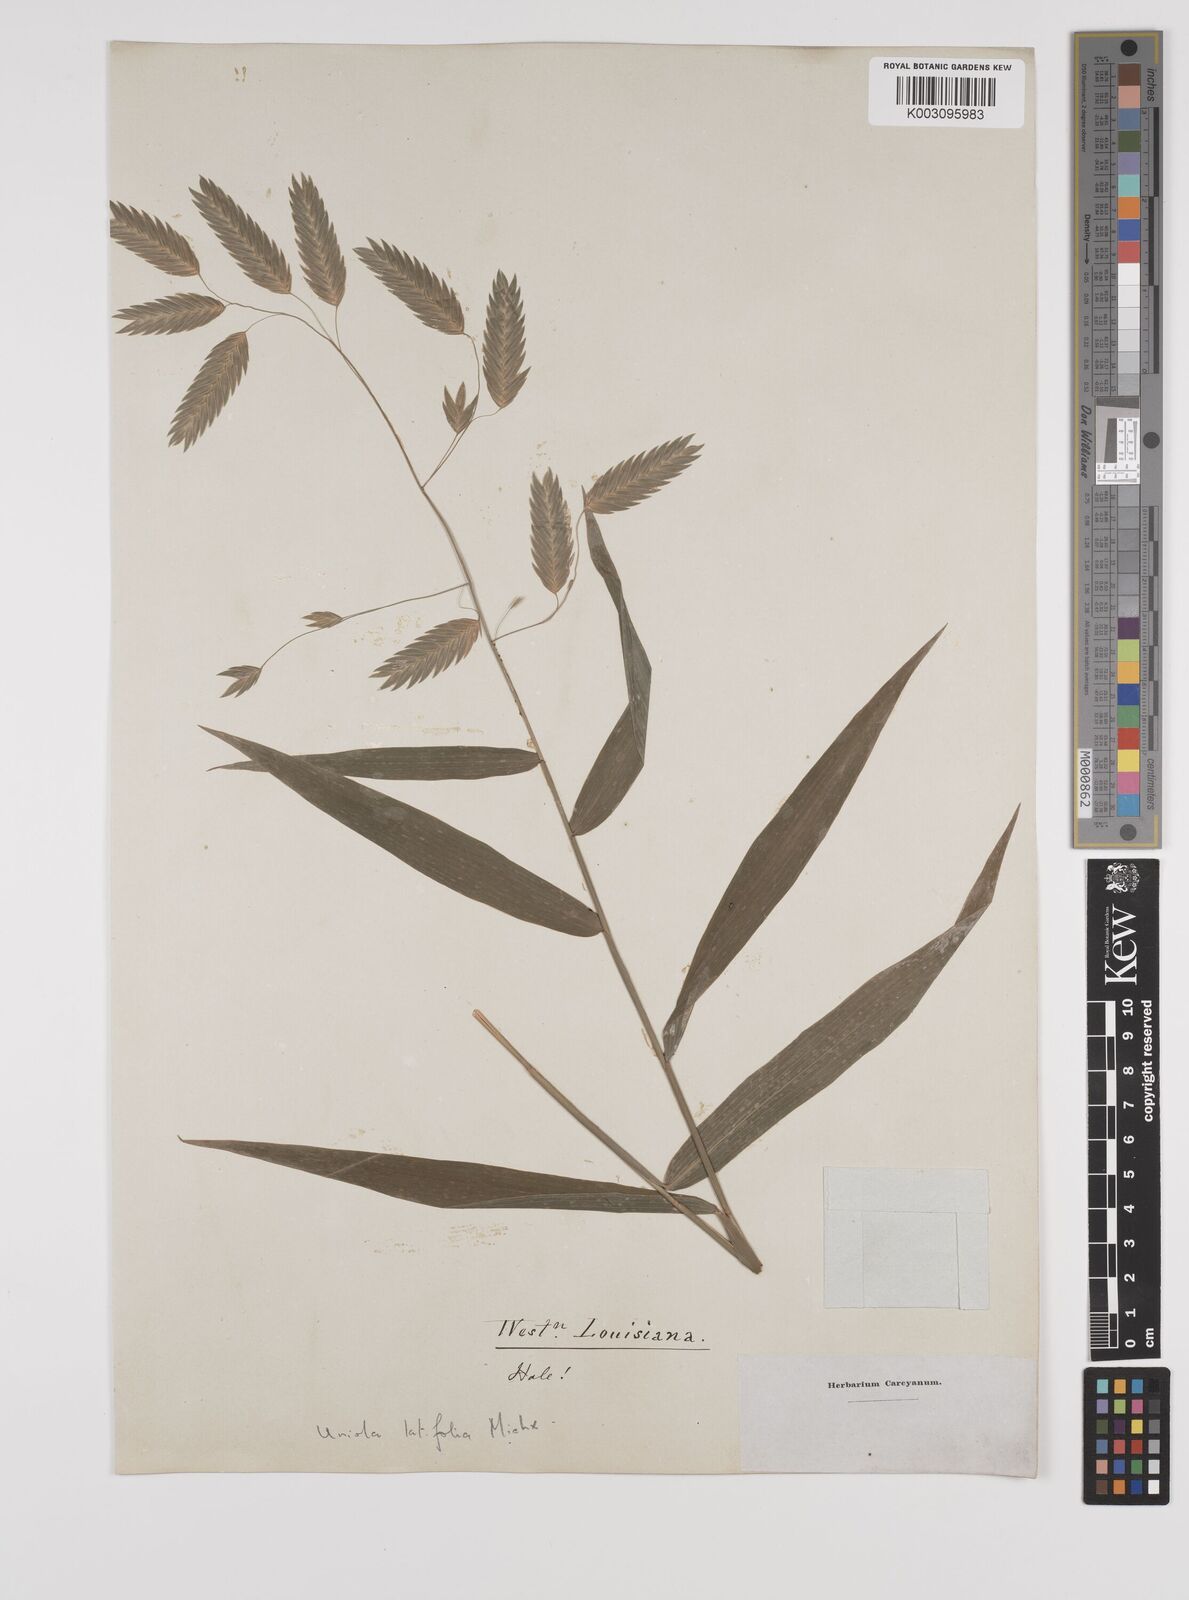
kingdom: Plantae
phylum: Tracheophyta
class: Liliopsida
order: Poales
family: Poaceae
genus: Chasmanthium
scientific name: Chasmanthium latifolium
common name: Broad-leaved chasmanthium
